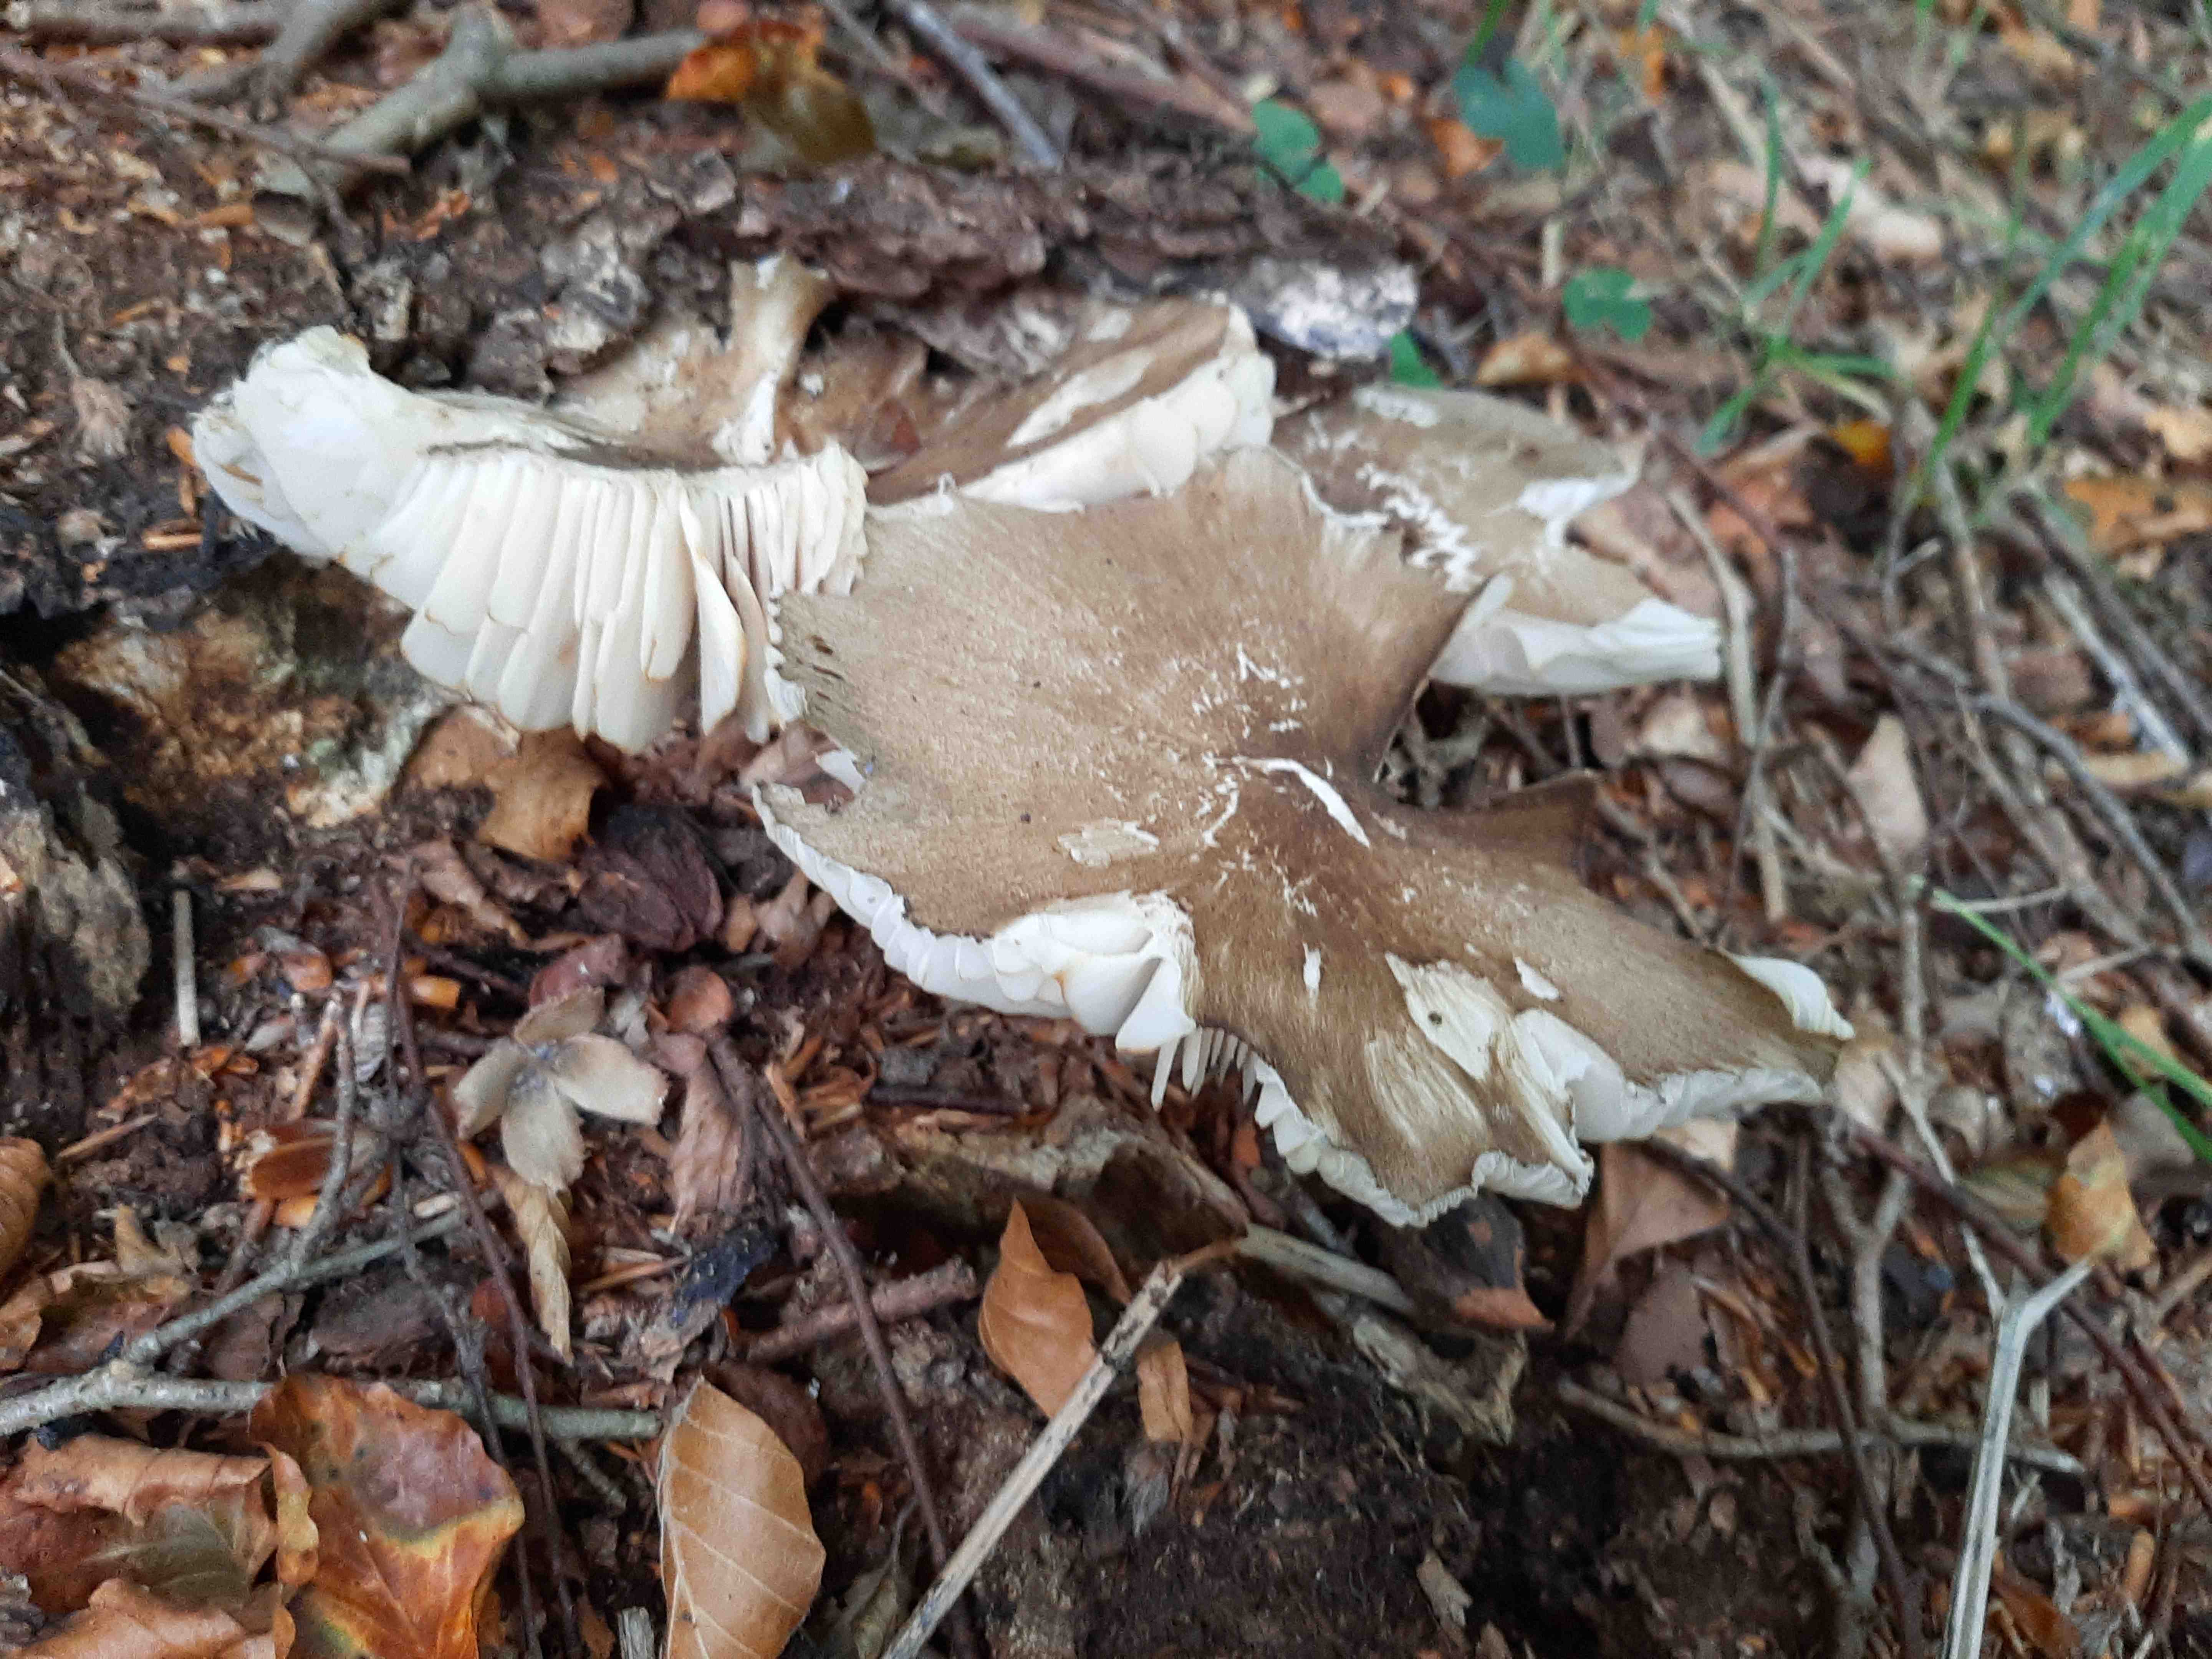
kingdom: Fungi
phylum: Basidiomycota
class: Agaricomycetes
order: Agaricales
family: Tricholomataceae
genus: Megacollybia
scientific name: Megacollybia platyphylla
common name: bredbladet væbnerhat
